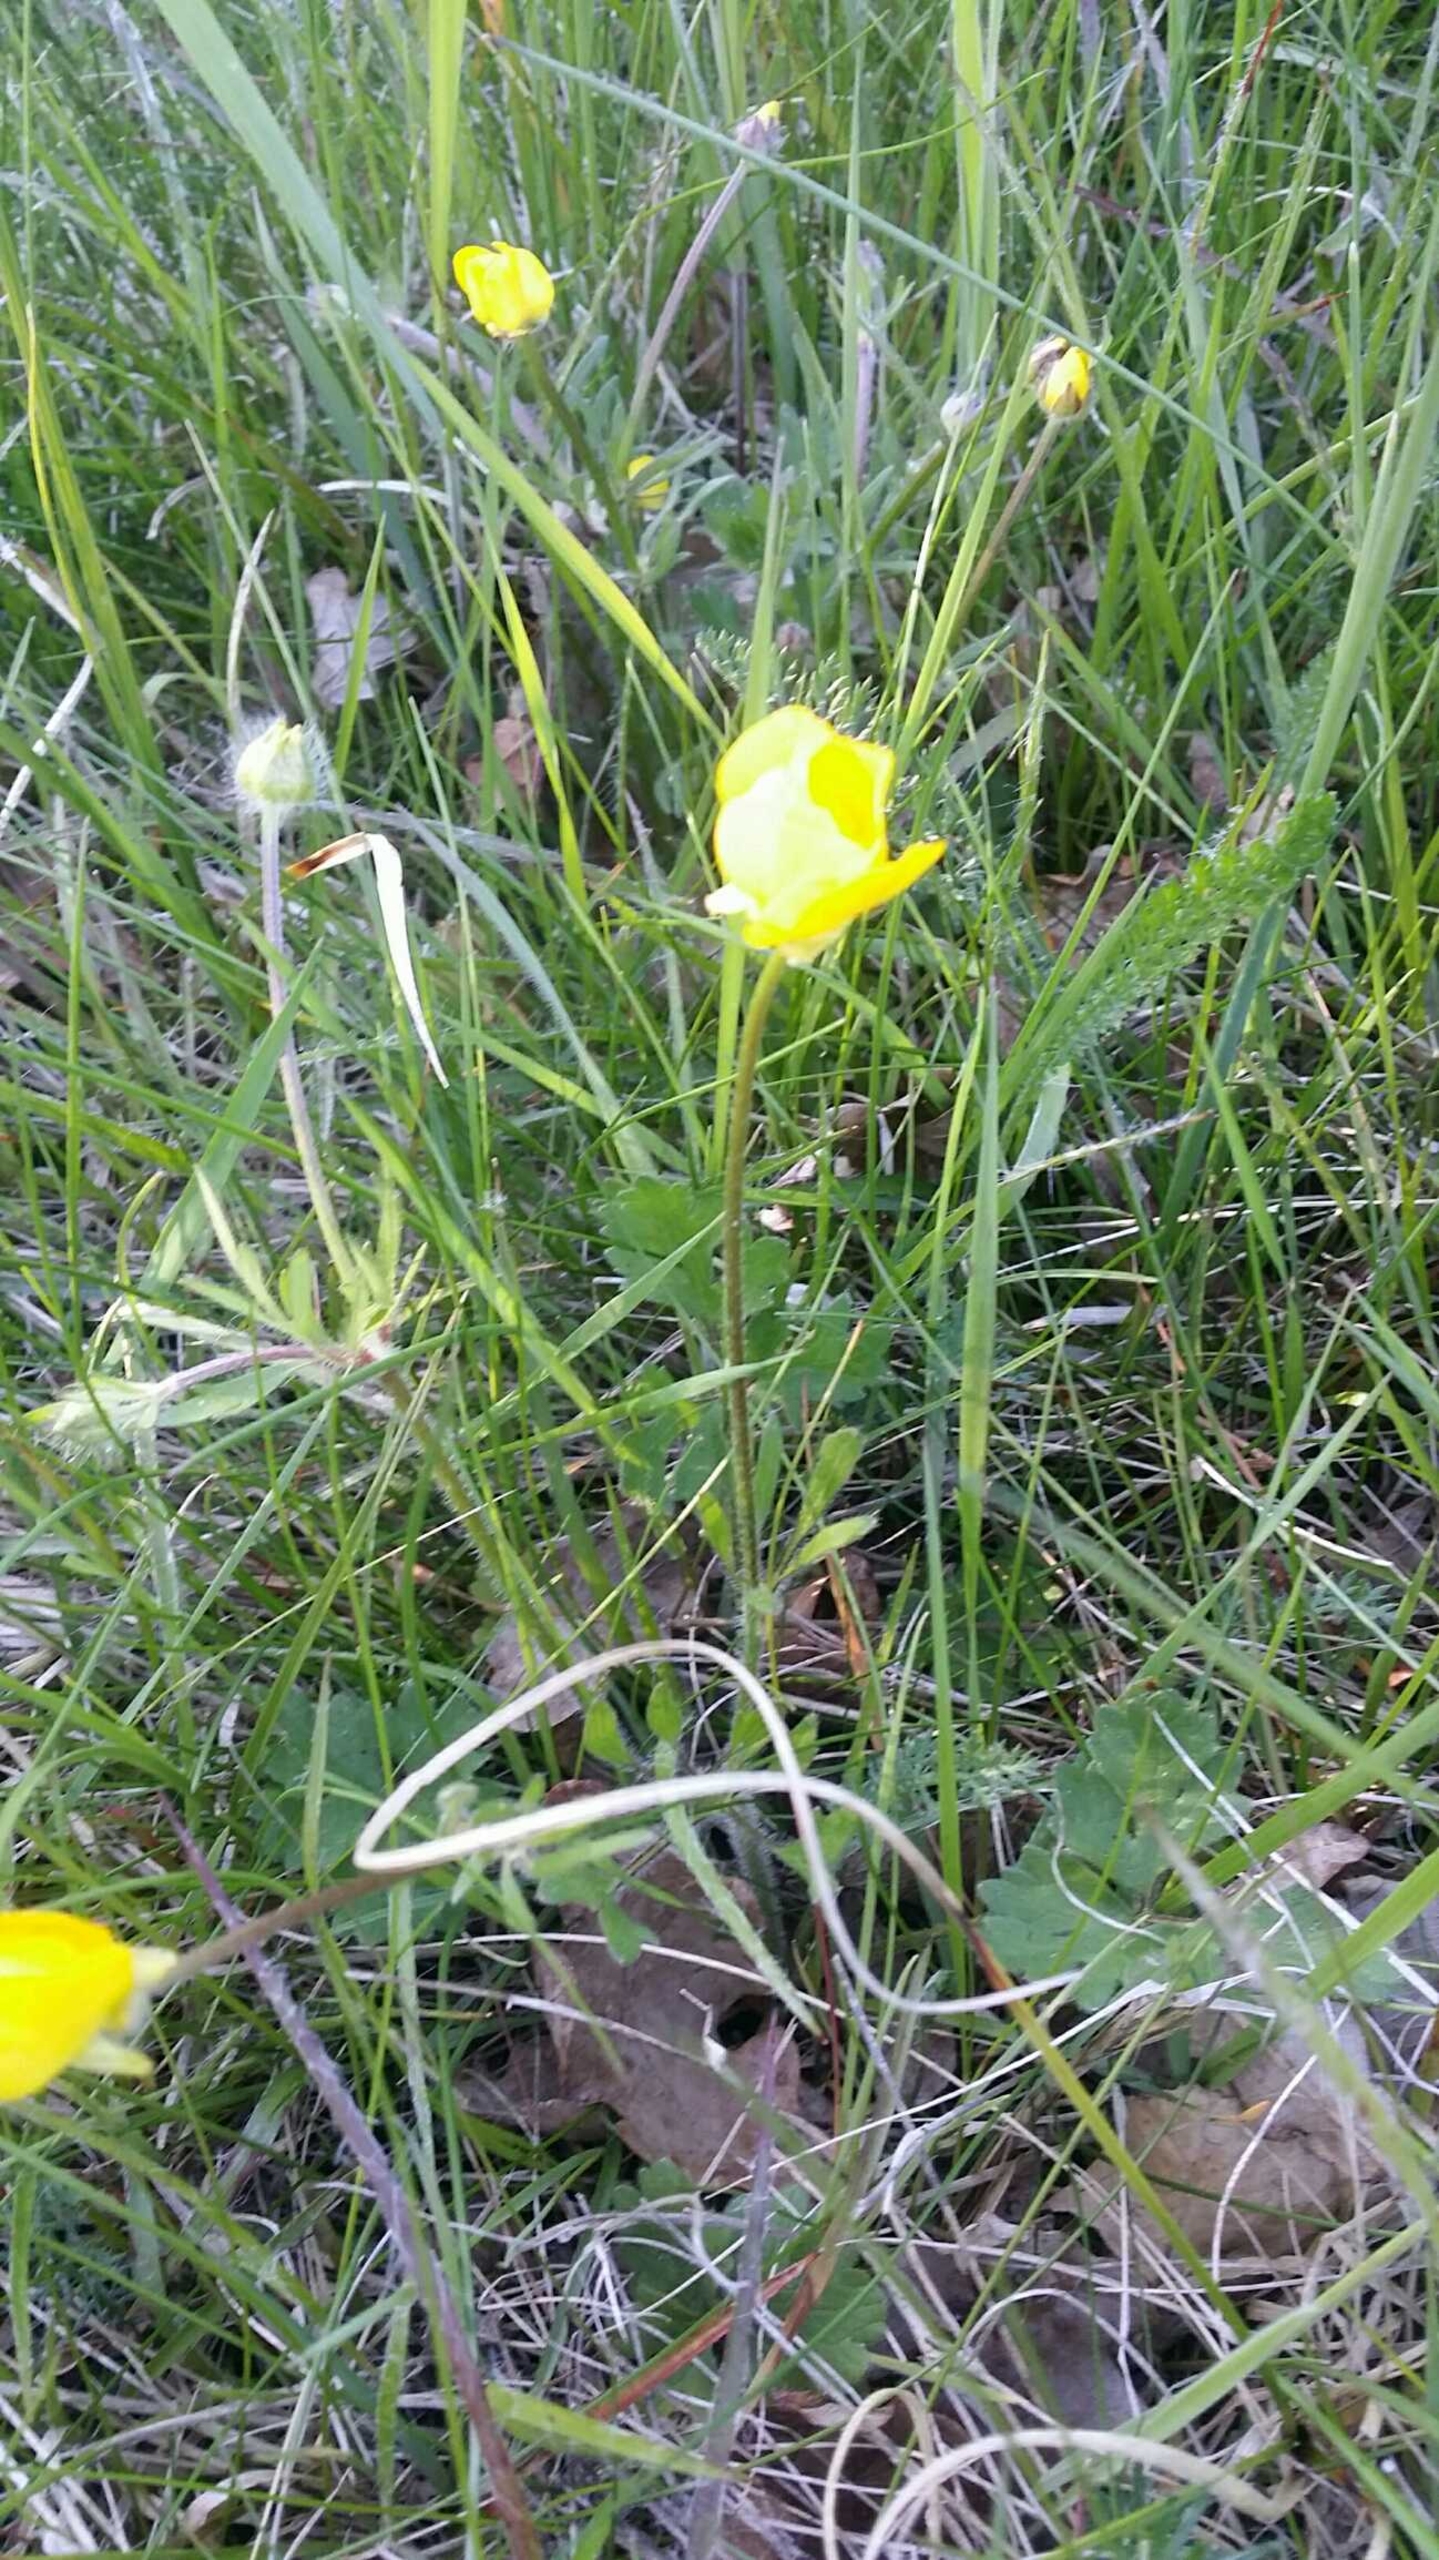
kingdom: Plantae
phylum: Tracheophyta
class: Magnoliopsida
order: Ranunculales
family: Ranunculaceae
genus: Ranunculus
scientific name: Ranunculus bulbosus
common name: Knold-ranunkel
